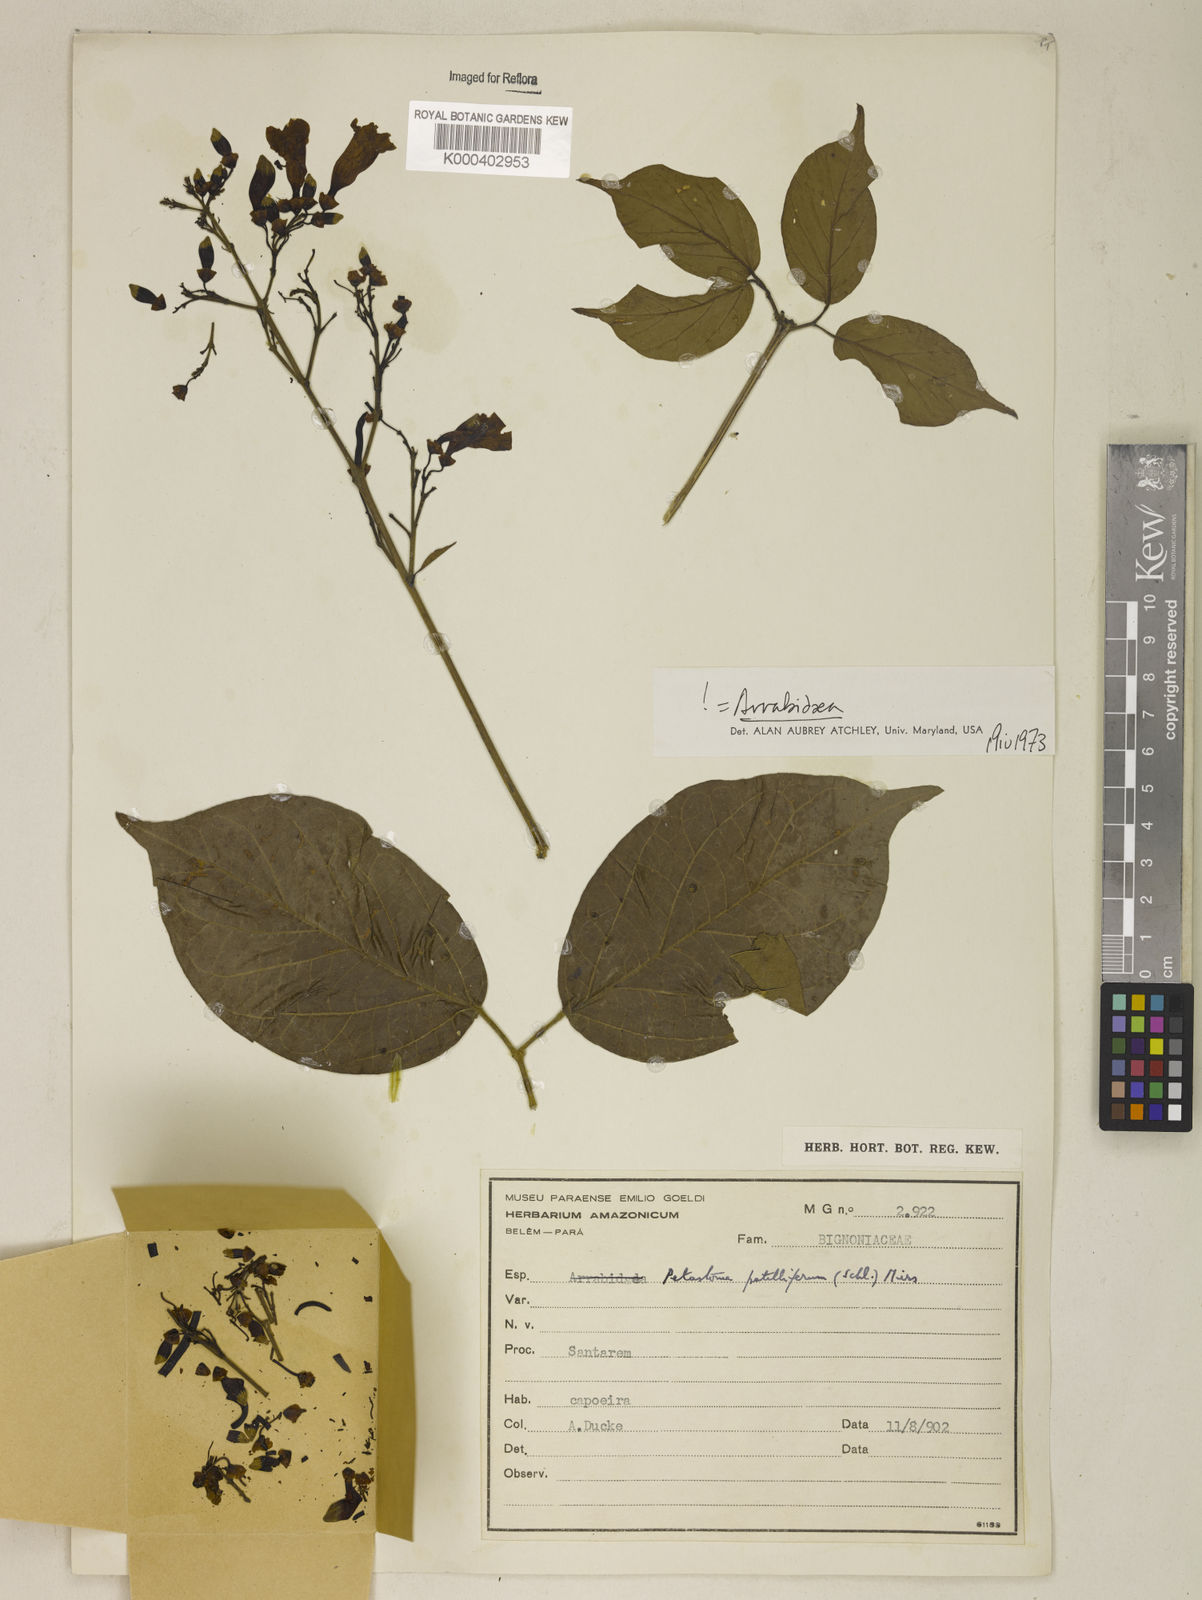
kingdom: Plantae
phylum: Tracheophyta
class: Magnoliopsida
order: Lamiales
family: Bignoniaceae
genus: Fridericia
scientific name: Fridericia patellifera
